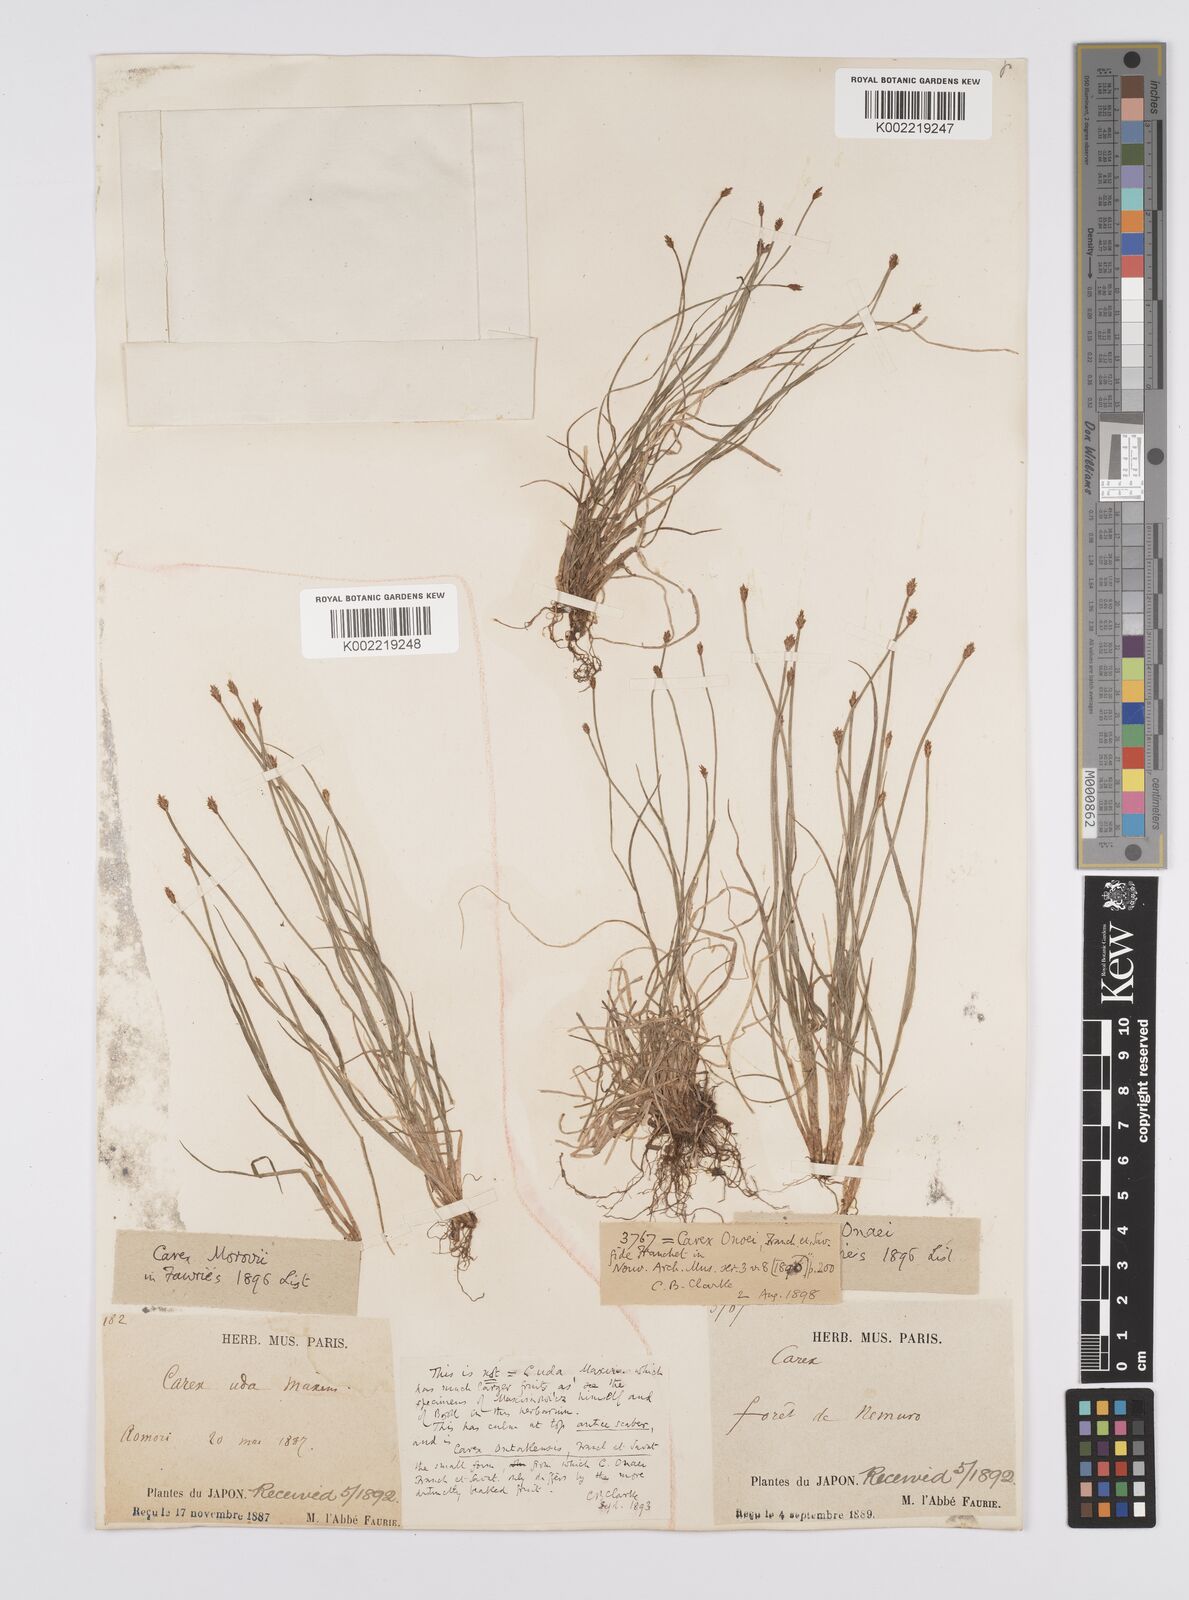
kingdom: Plantae
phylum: Tracheophyta
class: Liliopsida
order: Poales
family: Cyperaceae
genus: Carex
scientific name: Carex onoei
